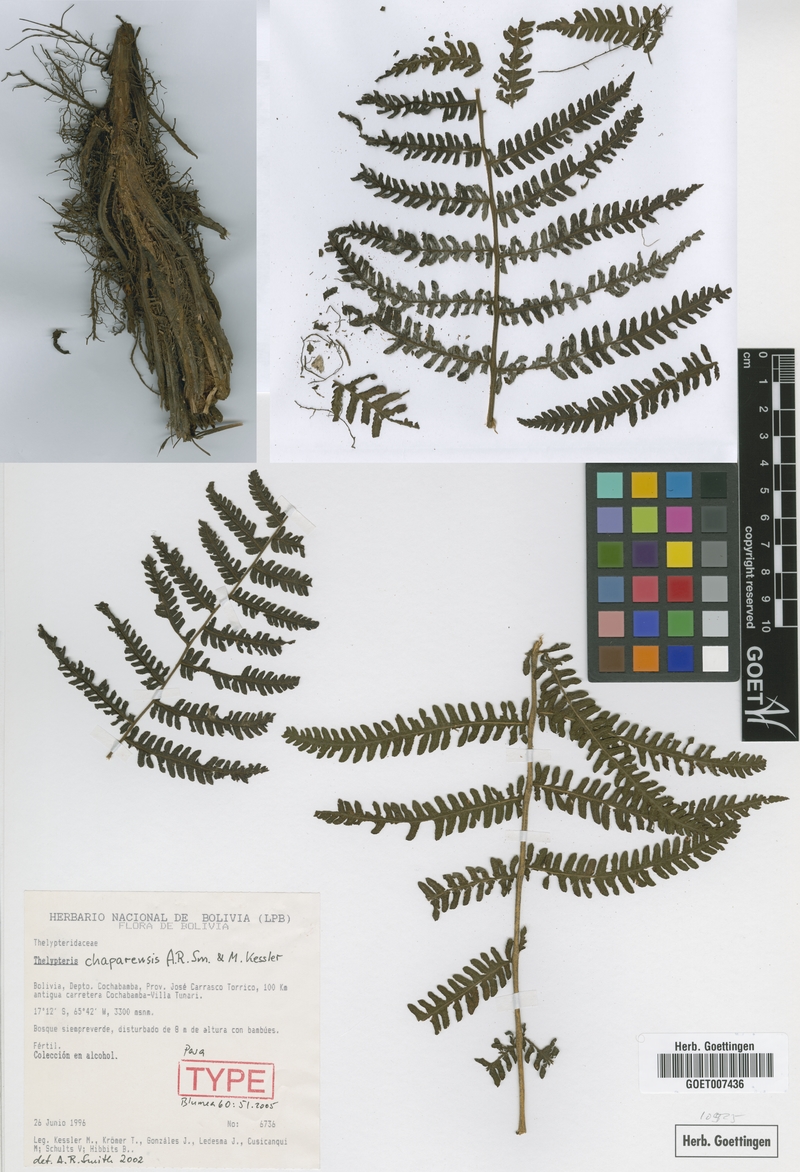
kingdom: Plantae
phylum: Tracheophyta
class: Polypodiopsida
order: Polypodiales
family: Thelypteridaceae
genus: Amauropelta
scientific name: Amauropelta chaparensis
